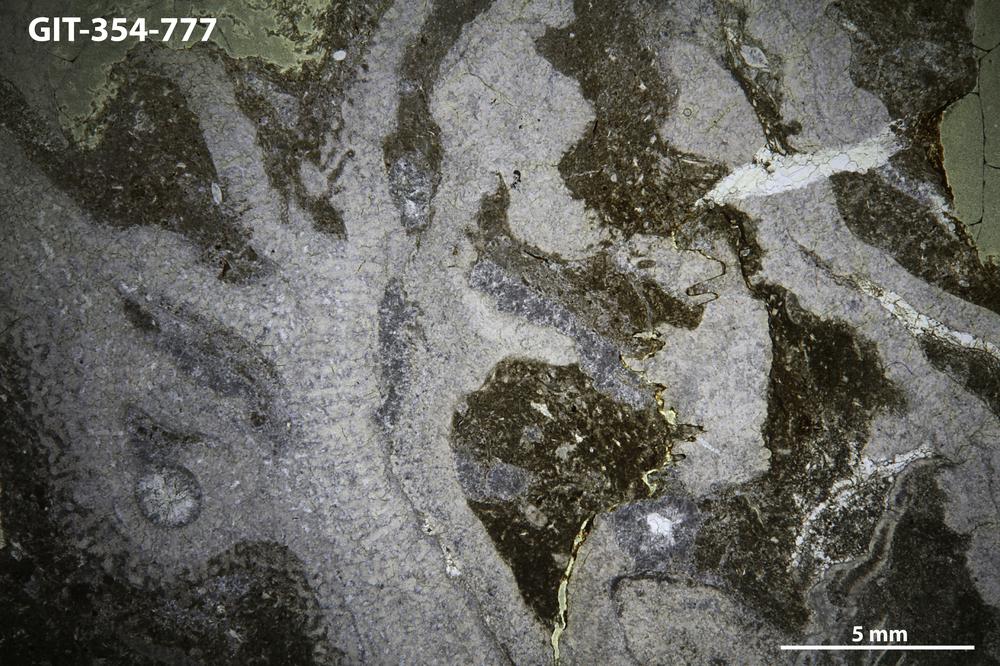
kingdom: Animalia
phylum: Nemertea
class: Hoplonemertea
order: Monostilifera
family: Amphiporidae
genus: Clathrodictyella
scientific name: Clathrodictyella
